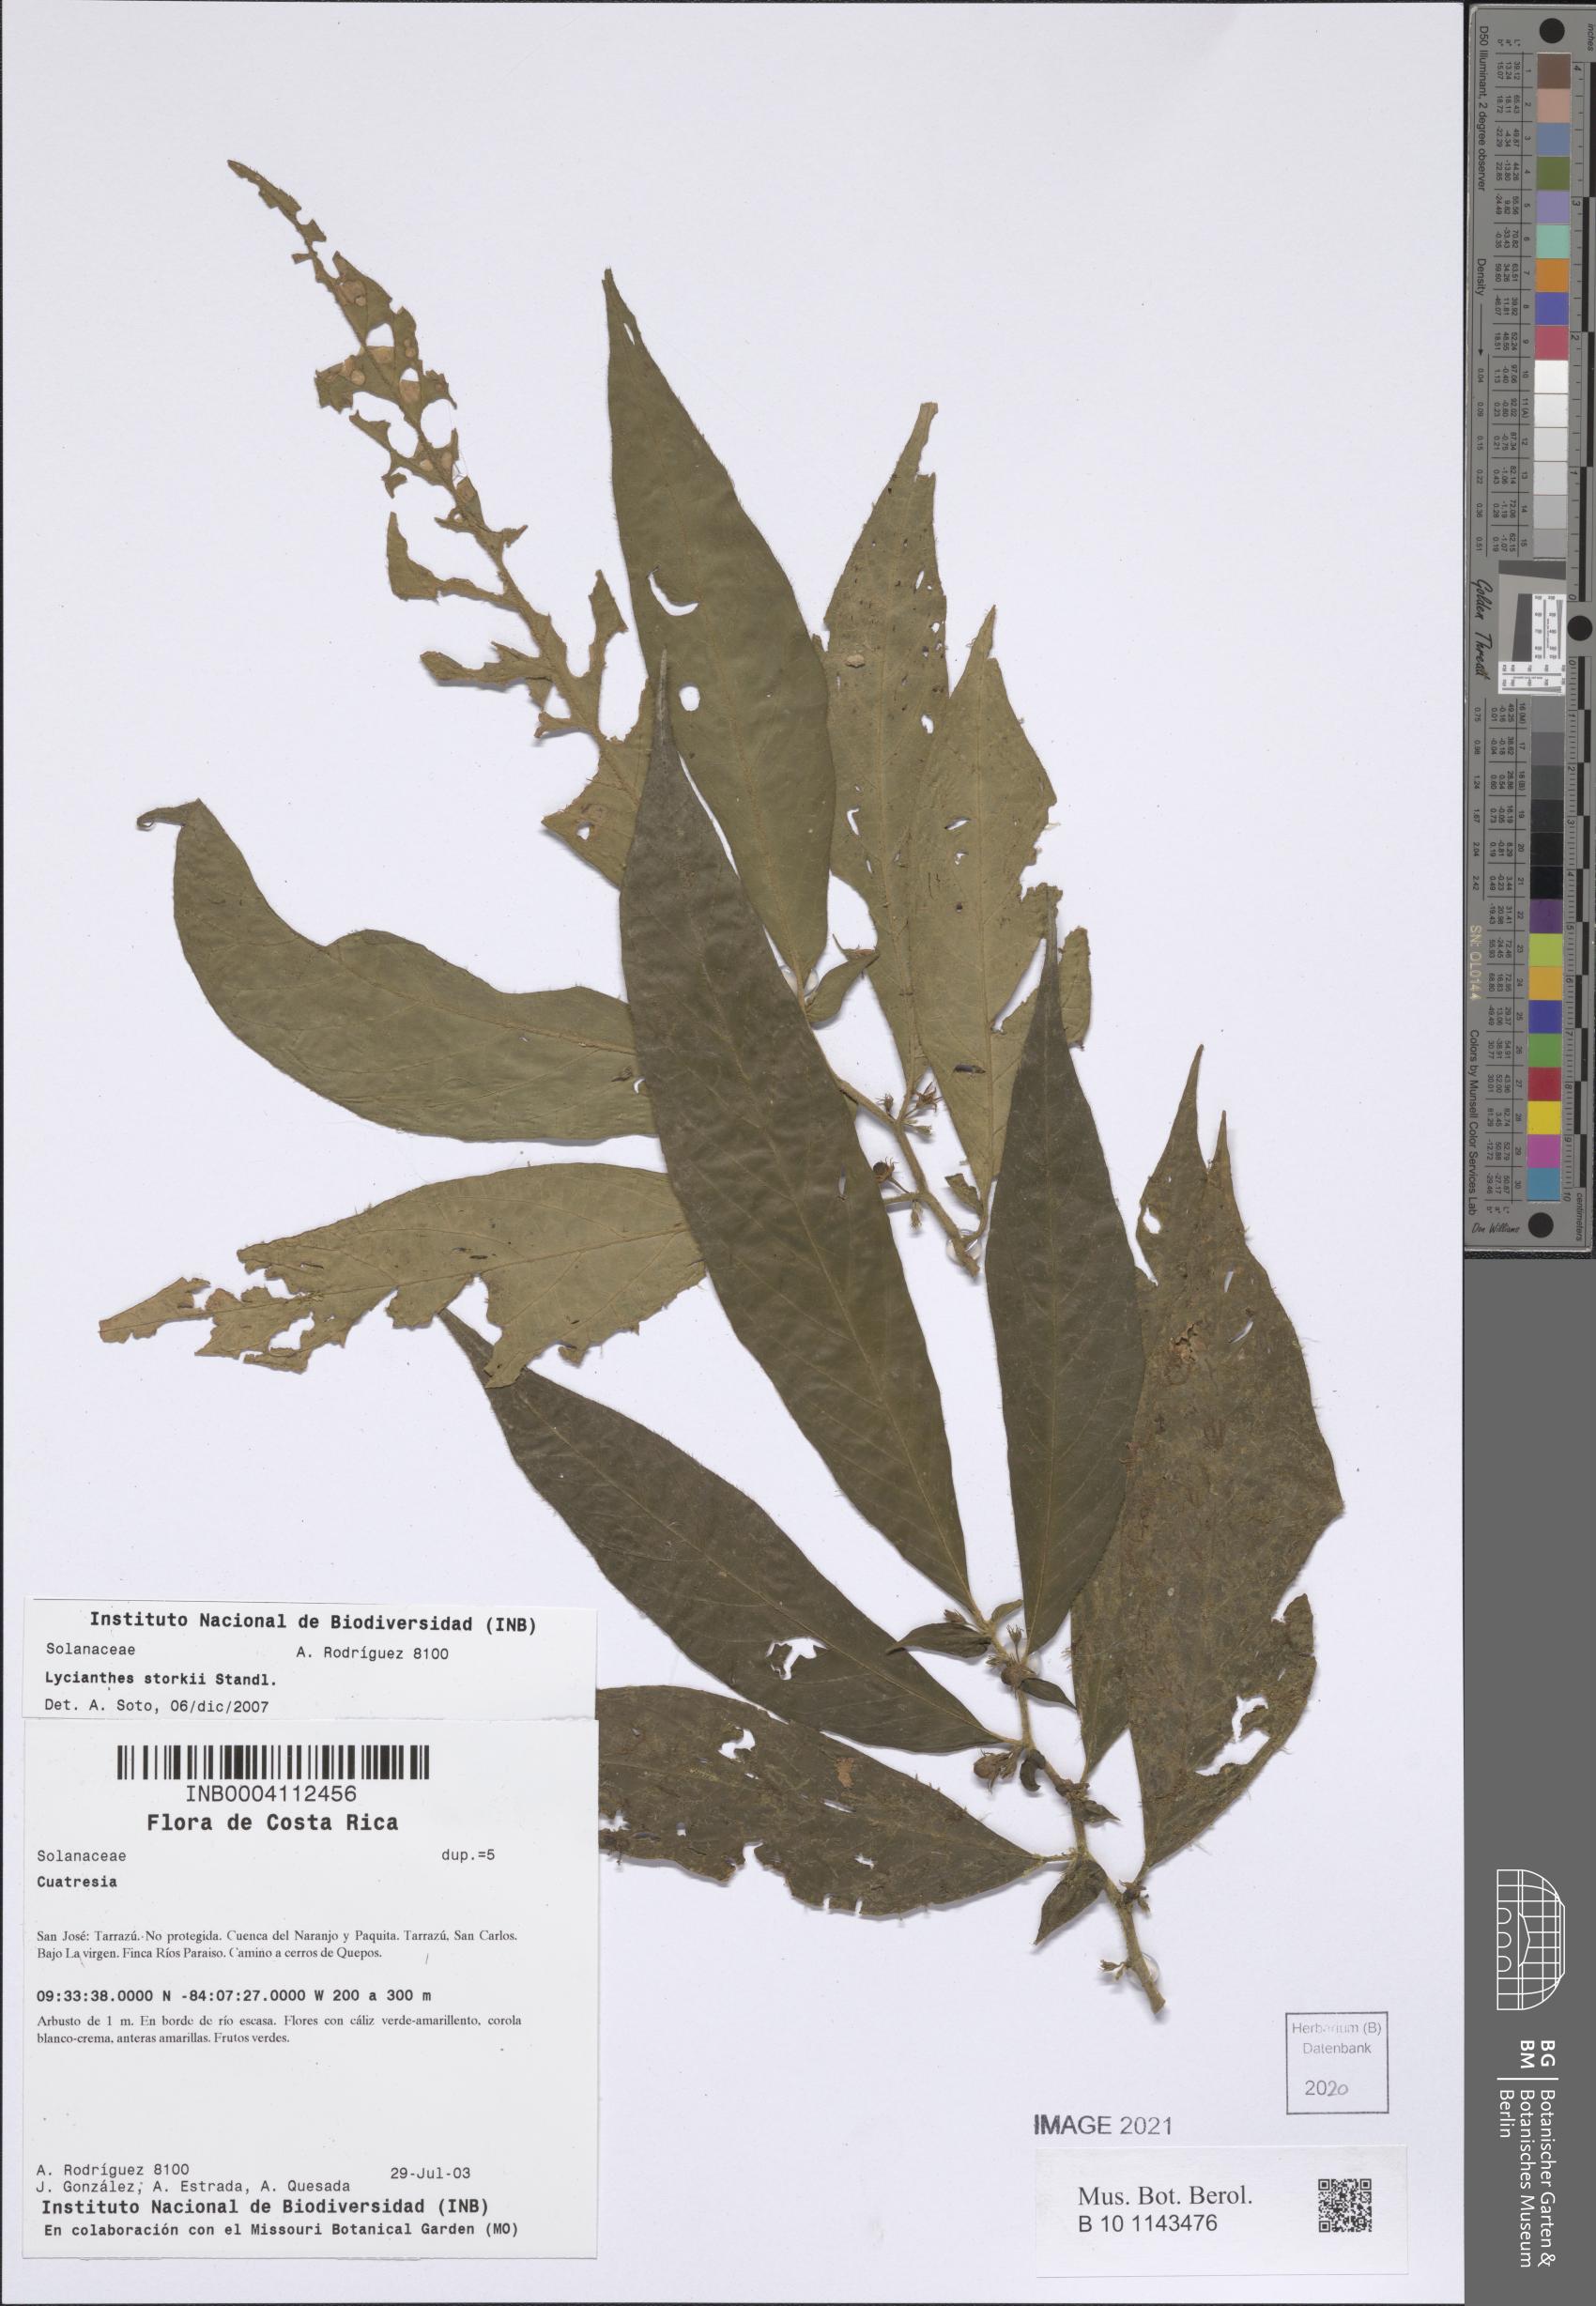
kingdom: Plantae
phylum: Tracheophyta
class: Magnoliopsida
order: Solanales
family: Solanaceae
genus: Lycianthes
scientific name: Lycianthes inconspicua
